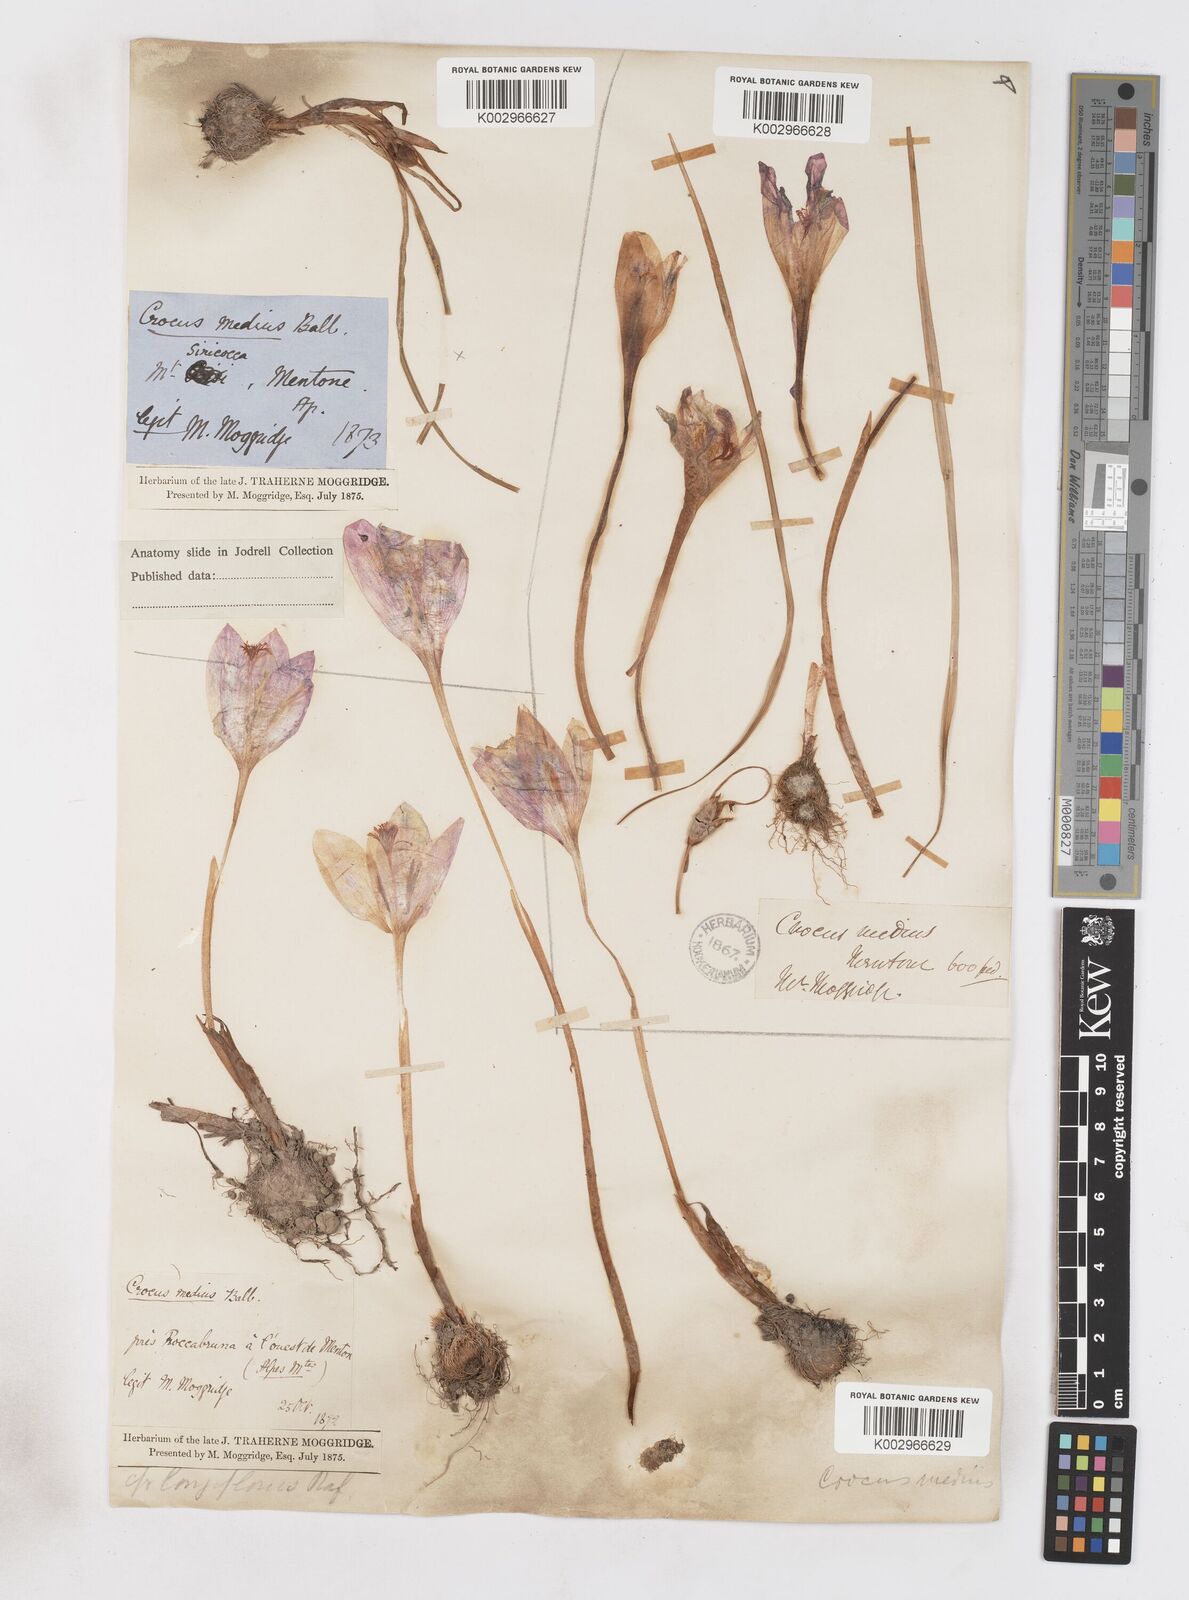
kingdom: Plantae
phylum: Tracheophyta
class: Liliopsida
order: Asparagales
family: Iridaceae
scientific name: Iridaceae
